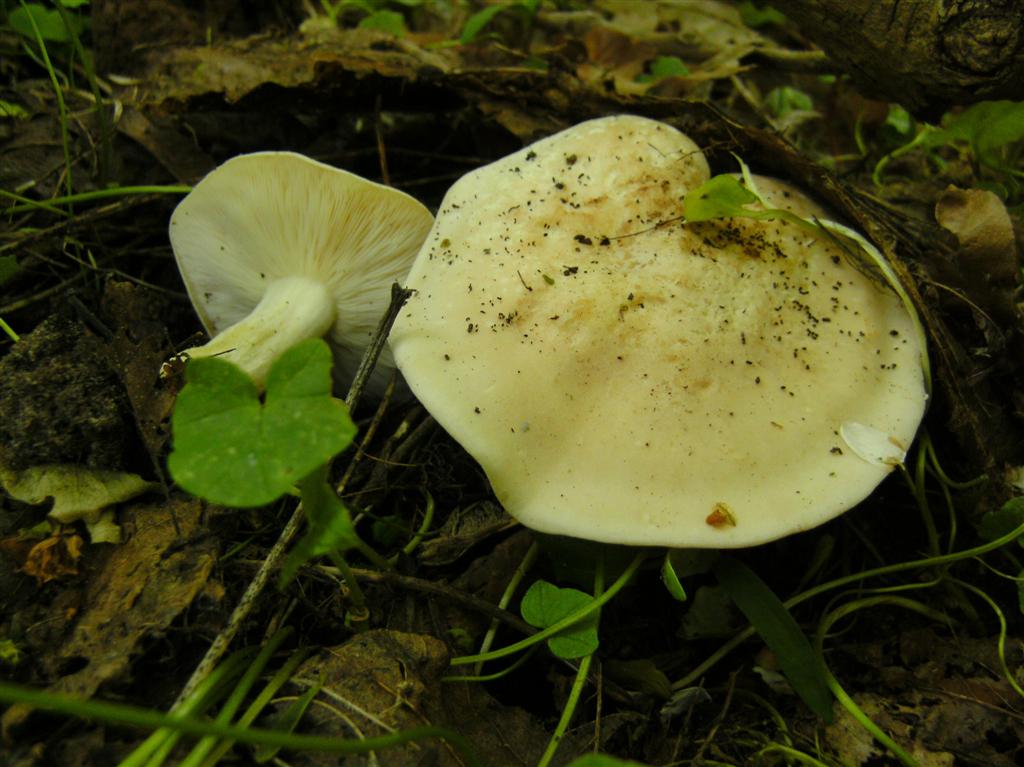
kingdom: Fungi
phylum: Basidiomycota
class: Agaricomycetes
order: Agaricales
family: Lyophyllaceae
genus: Calocybe
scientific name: Calocybe gambosa
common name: vårmusseron
